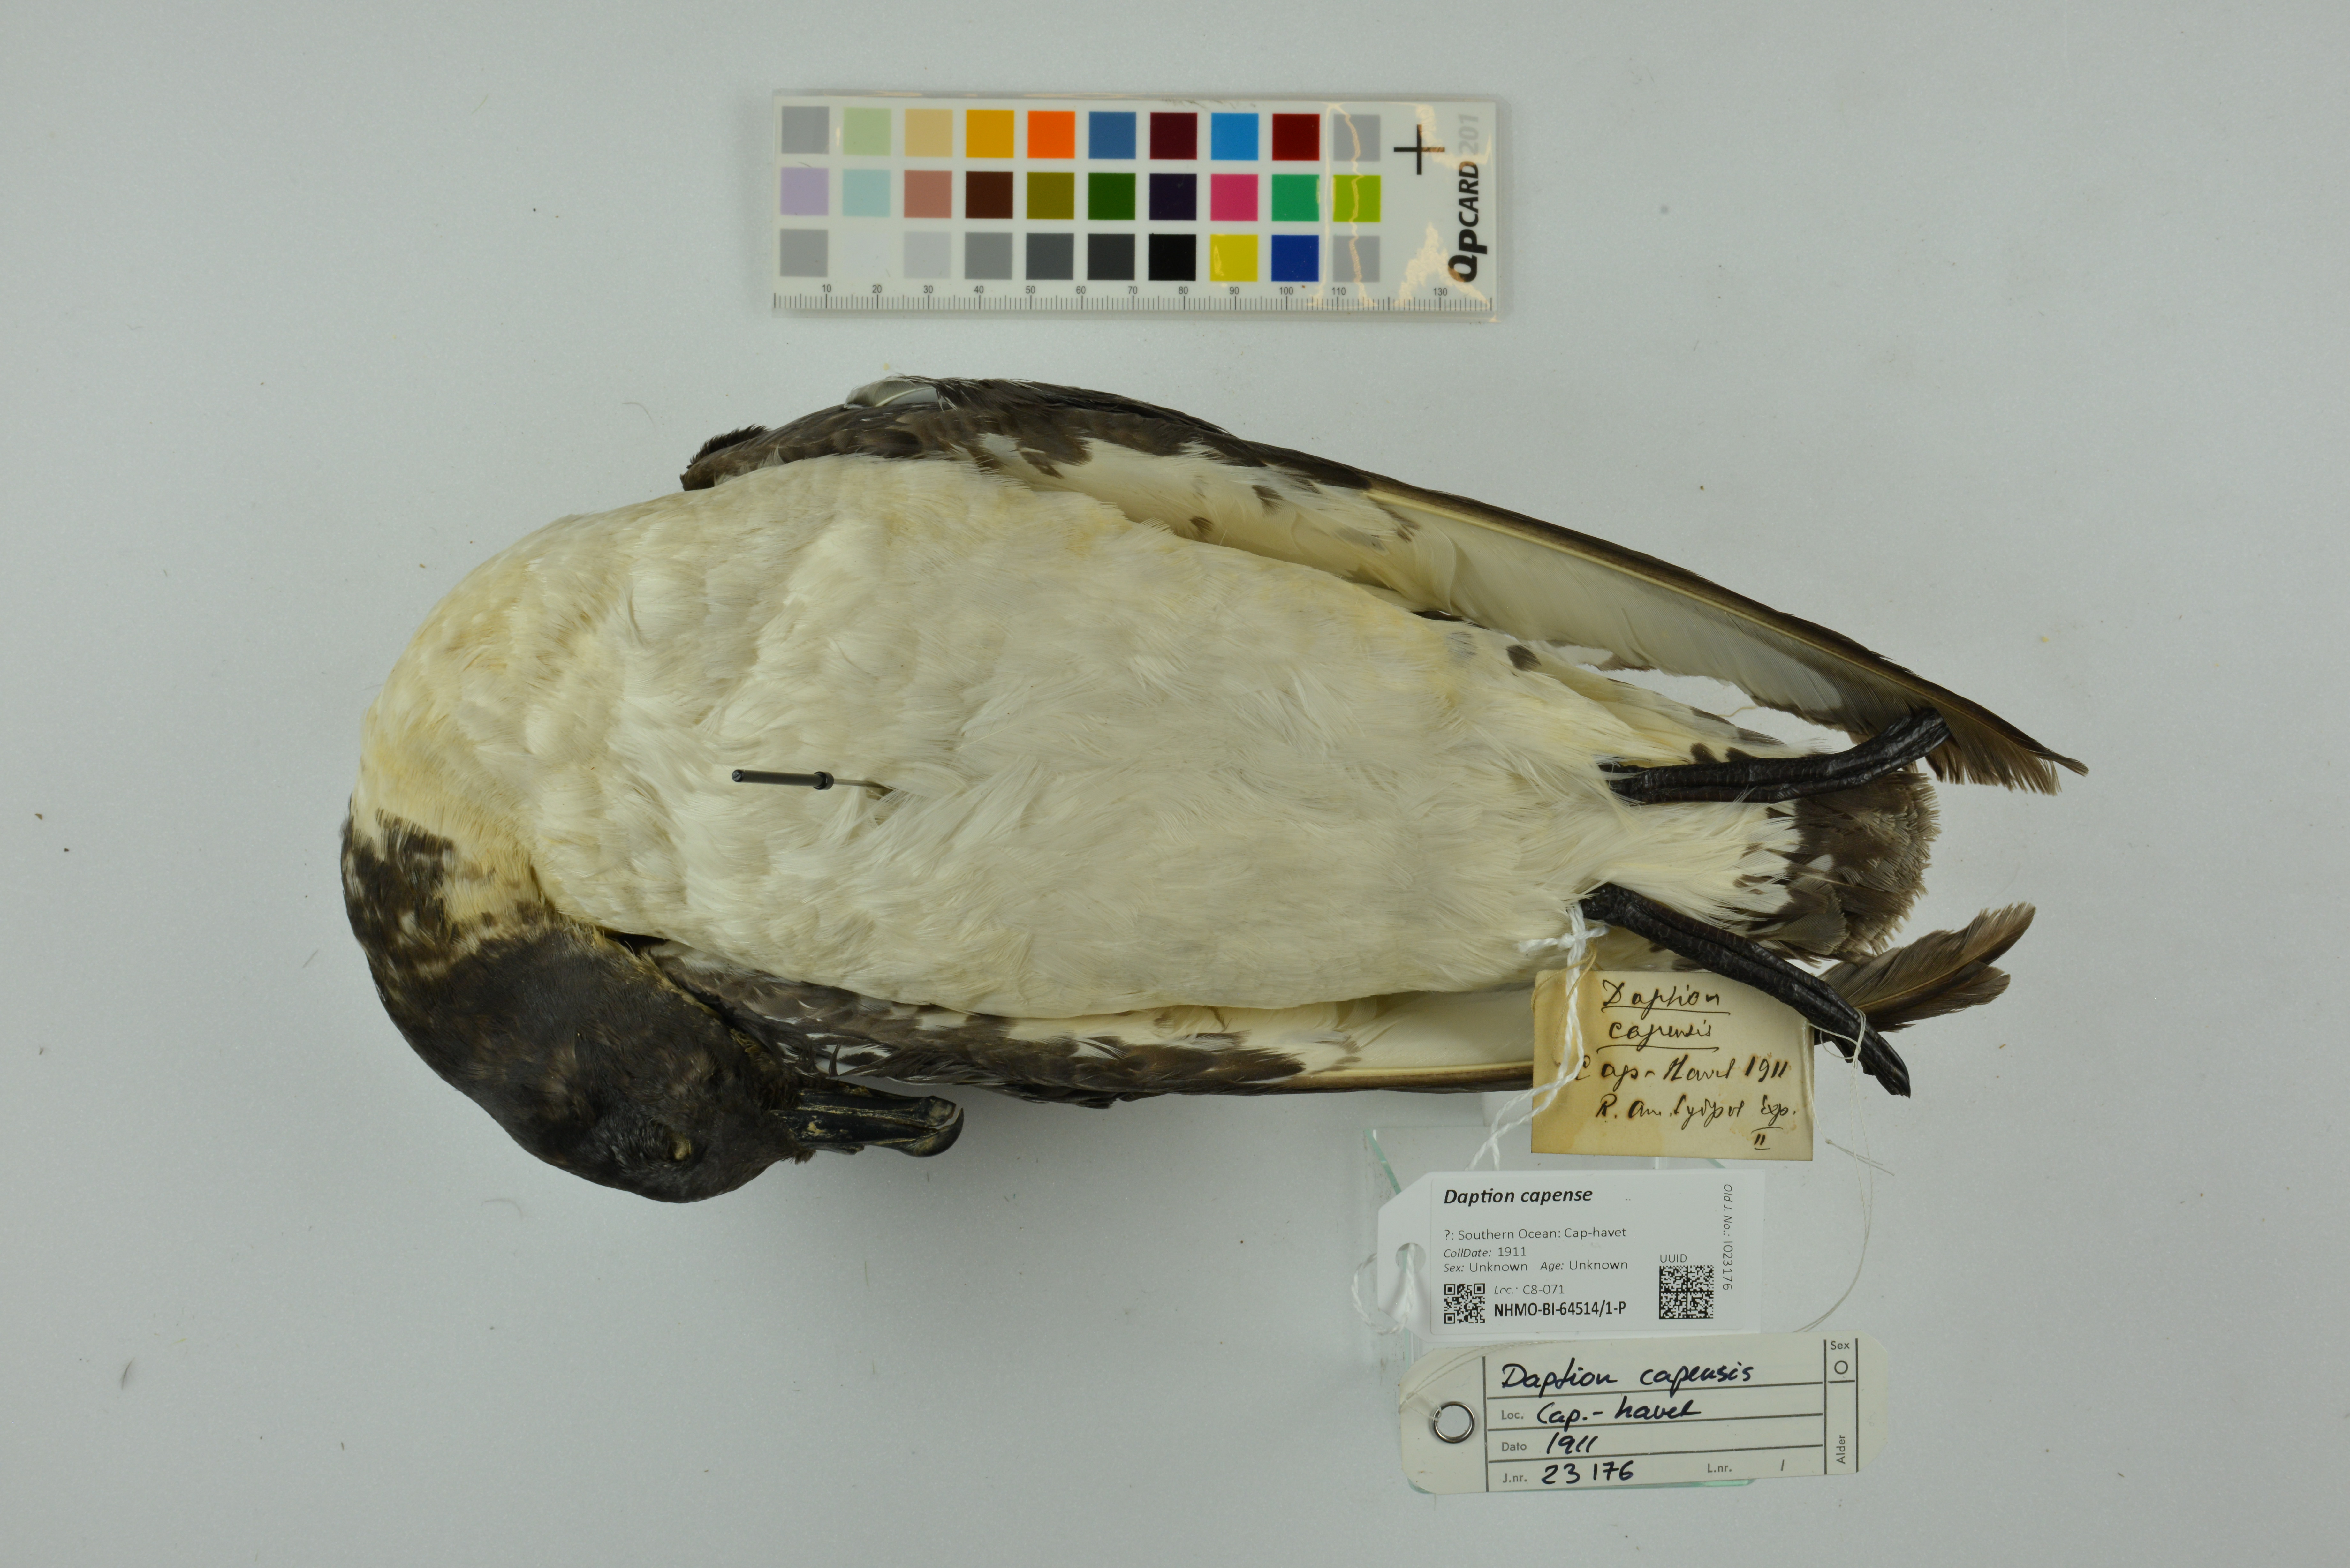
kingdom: Animalia
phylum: Chordata
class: Aves
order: Procellariiformes
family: Procellariidae
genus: Daption
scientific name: Daption capense
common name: Cape petrel
